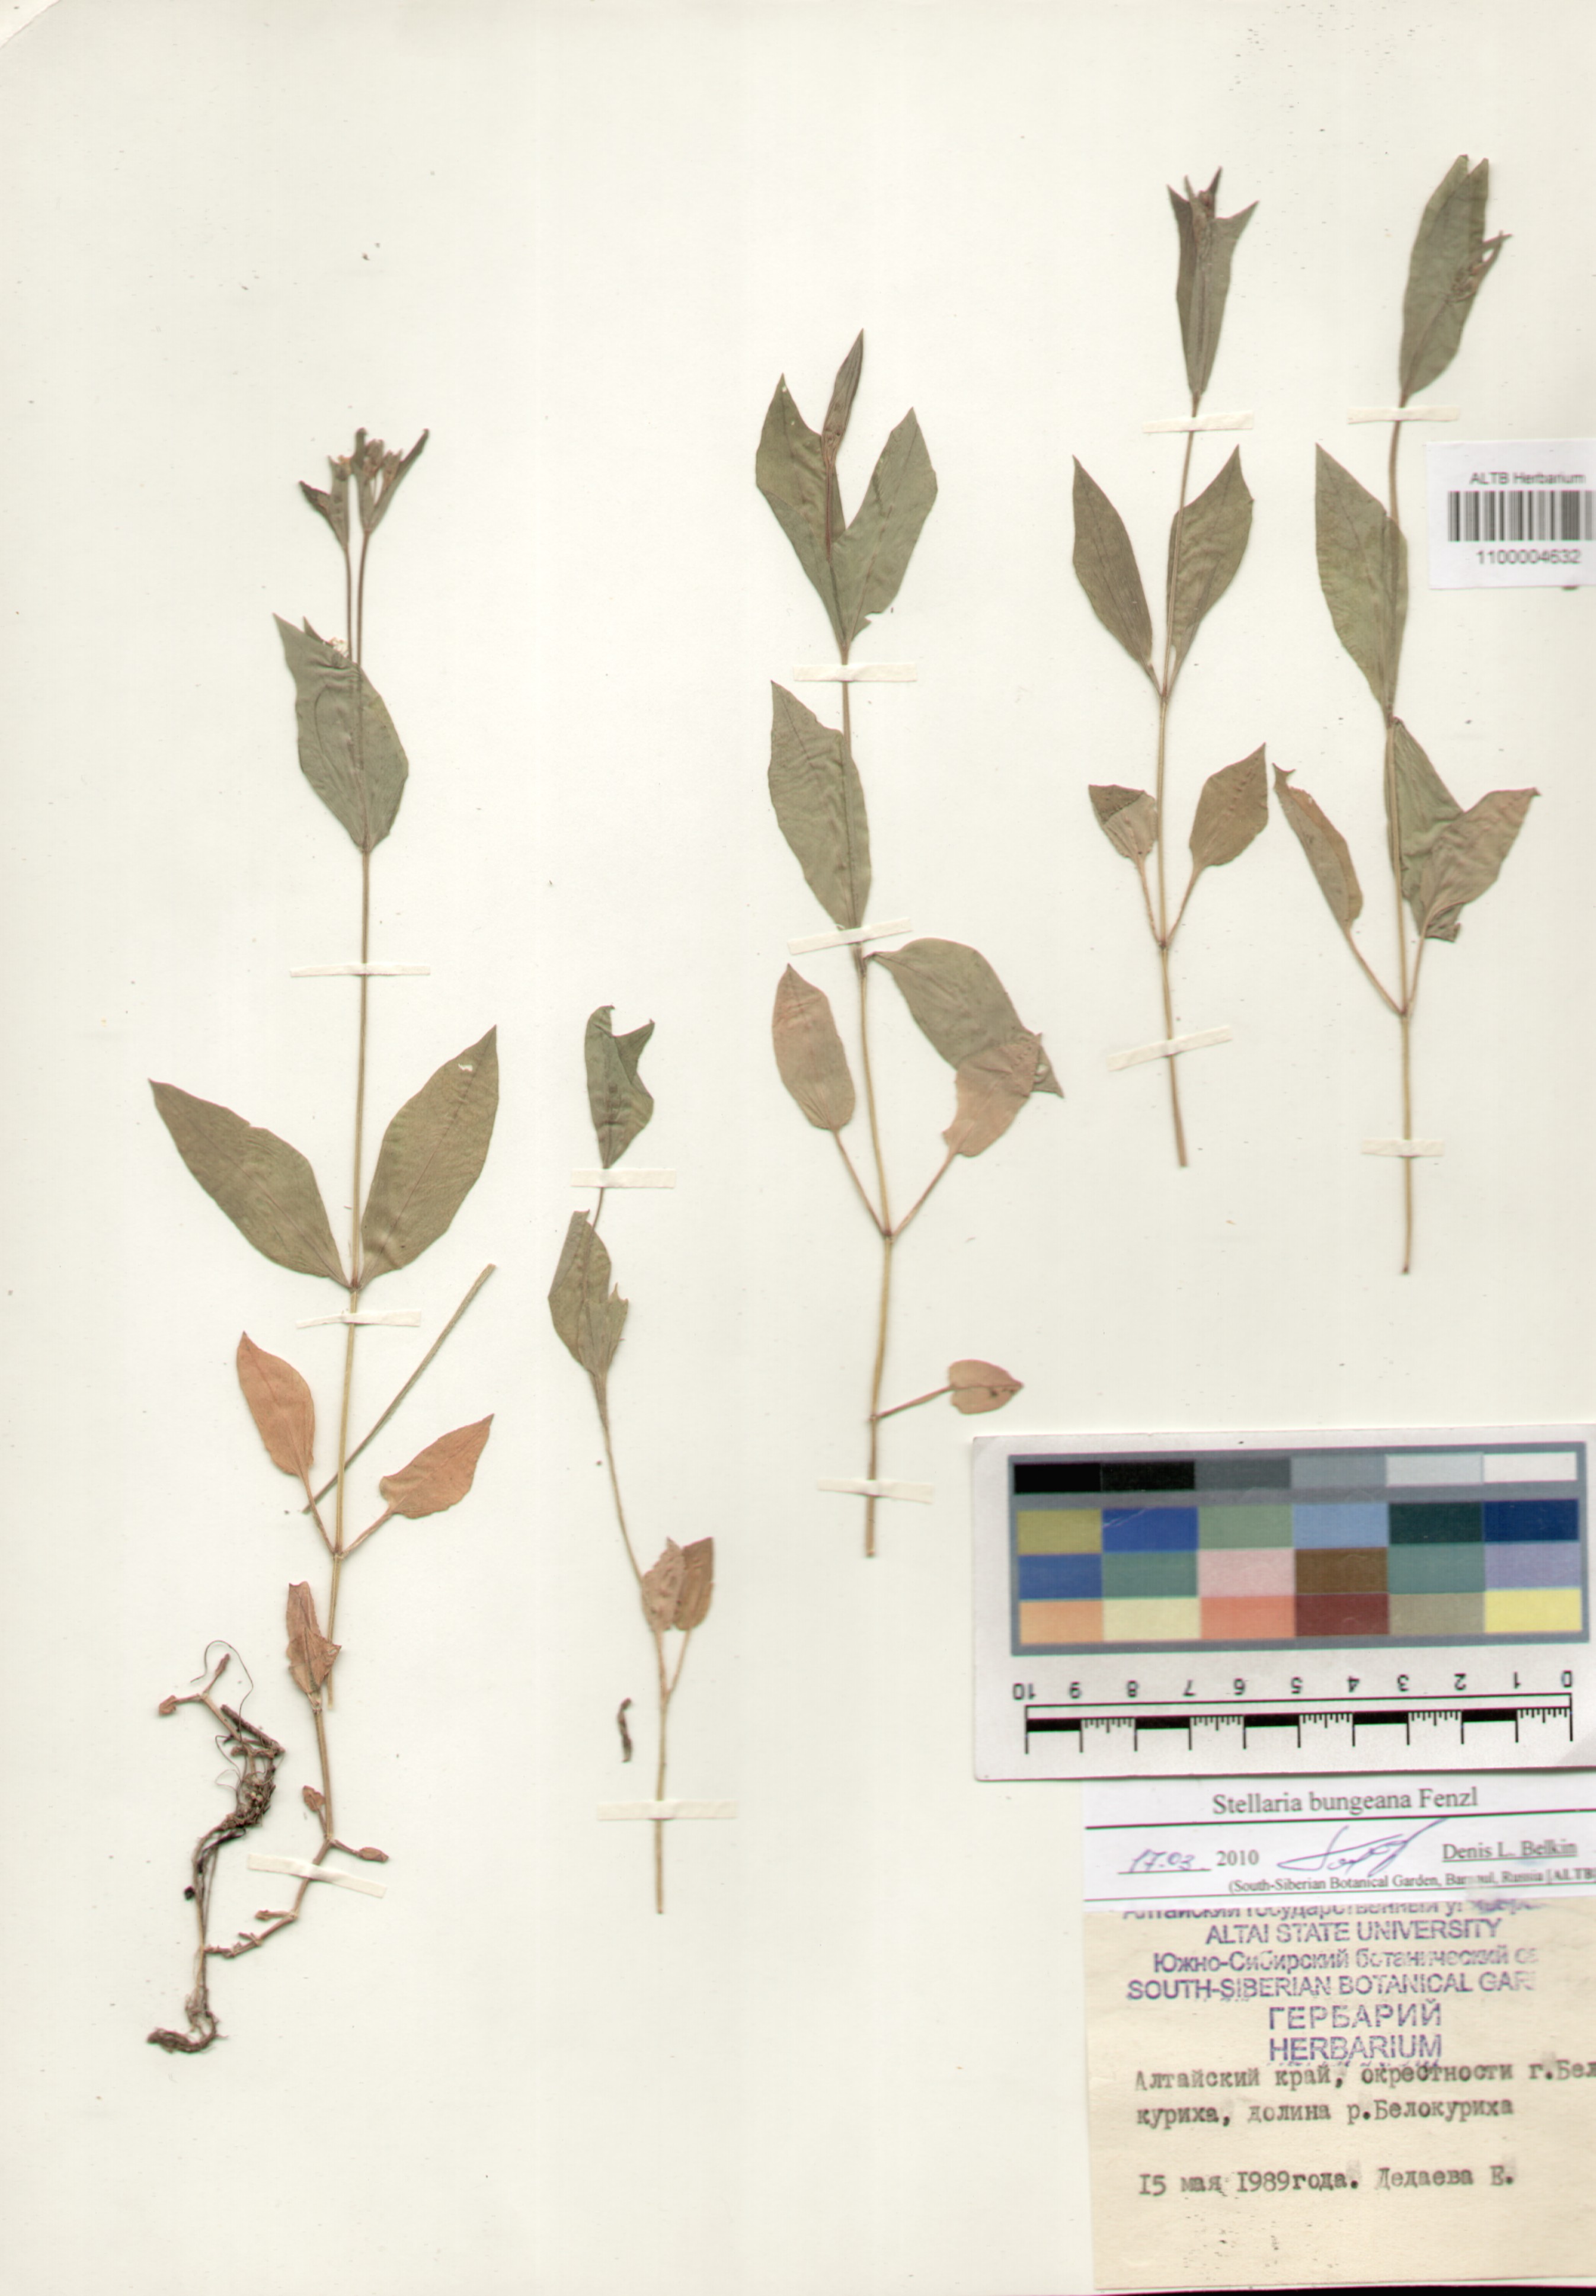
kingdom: Plantae
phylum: Tracheophyta
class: Magnoliopsida
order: Caryophyllales
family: Caryophyllaceae
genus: Stellaria
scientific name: Stellaria bungeana
